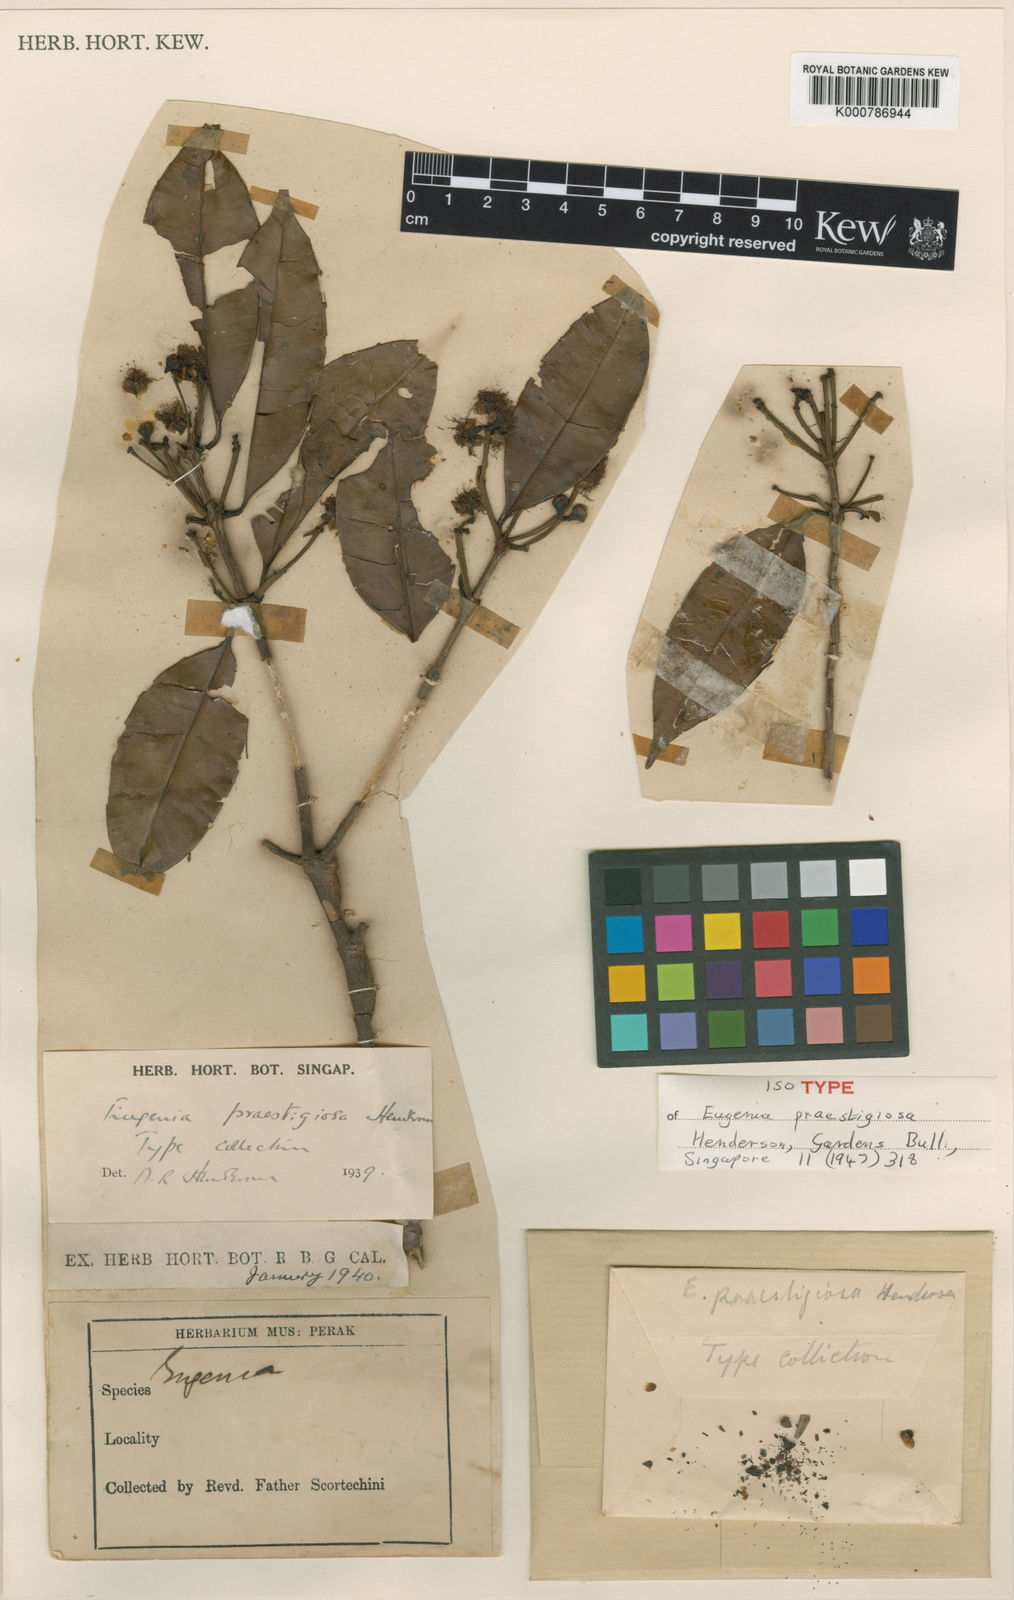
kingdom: Plantae
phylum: Tracheophyta
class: Magnoliopsida
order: Myrtales
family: Myrtaceae
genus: Syzygium
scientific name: Syzygium
